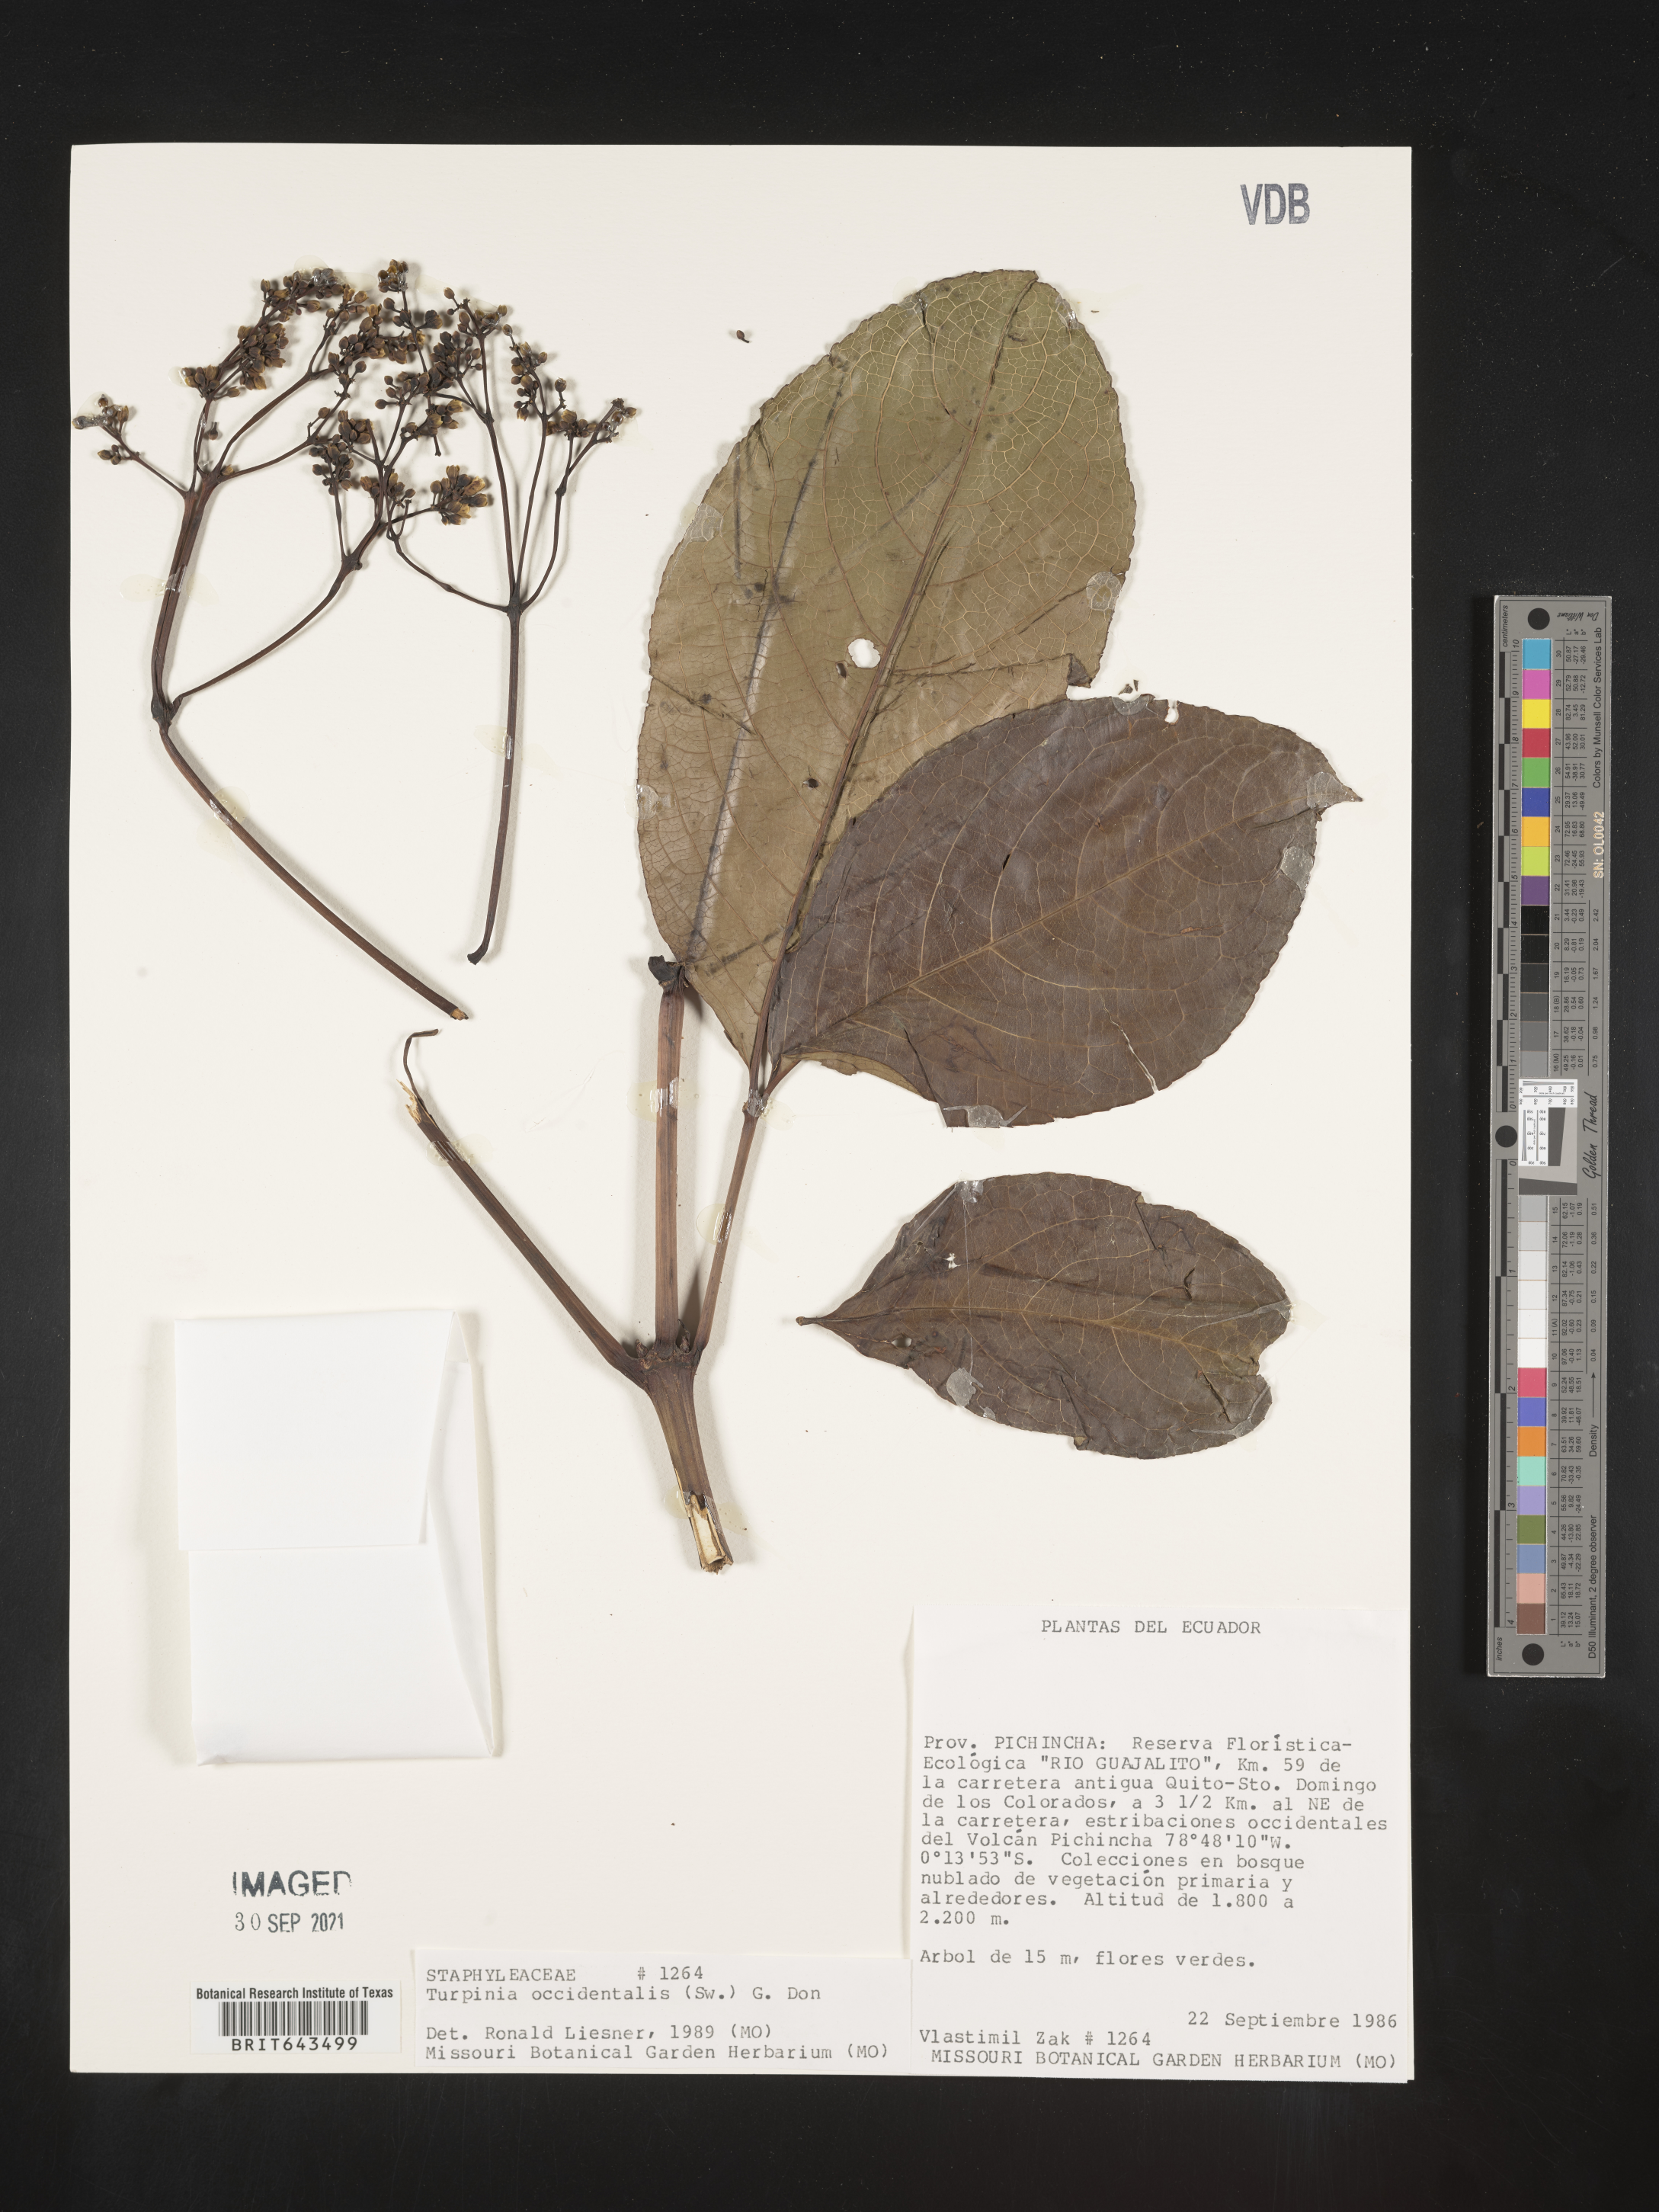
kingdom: Plantae
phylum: Tracheophyta
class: Magnoliopsida
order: Crossosomatales
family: Staphyleaceae
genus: Turpinia
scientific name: Turpinia
